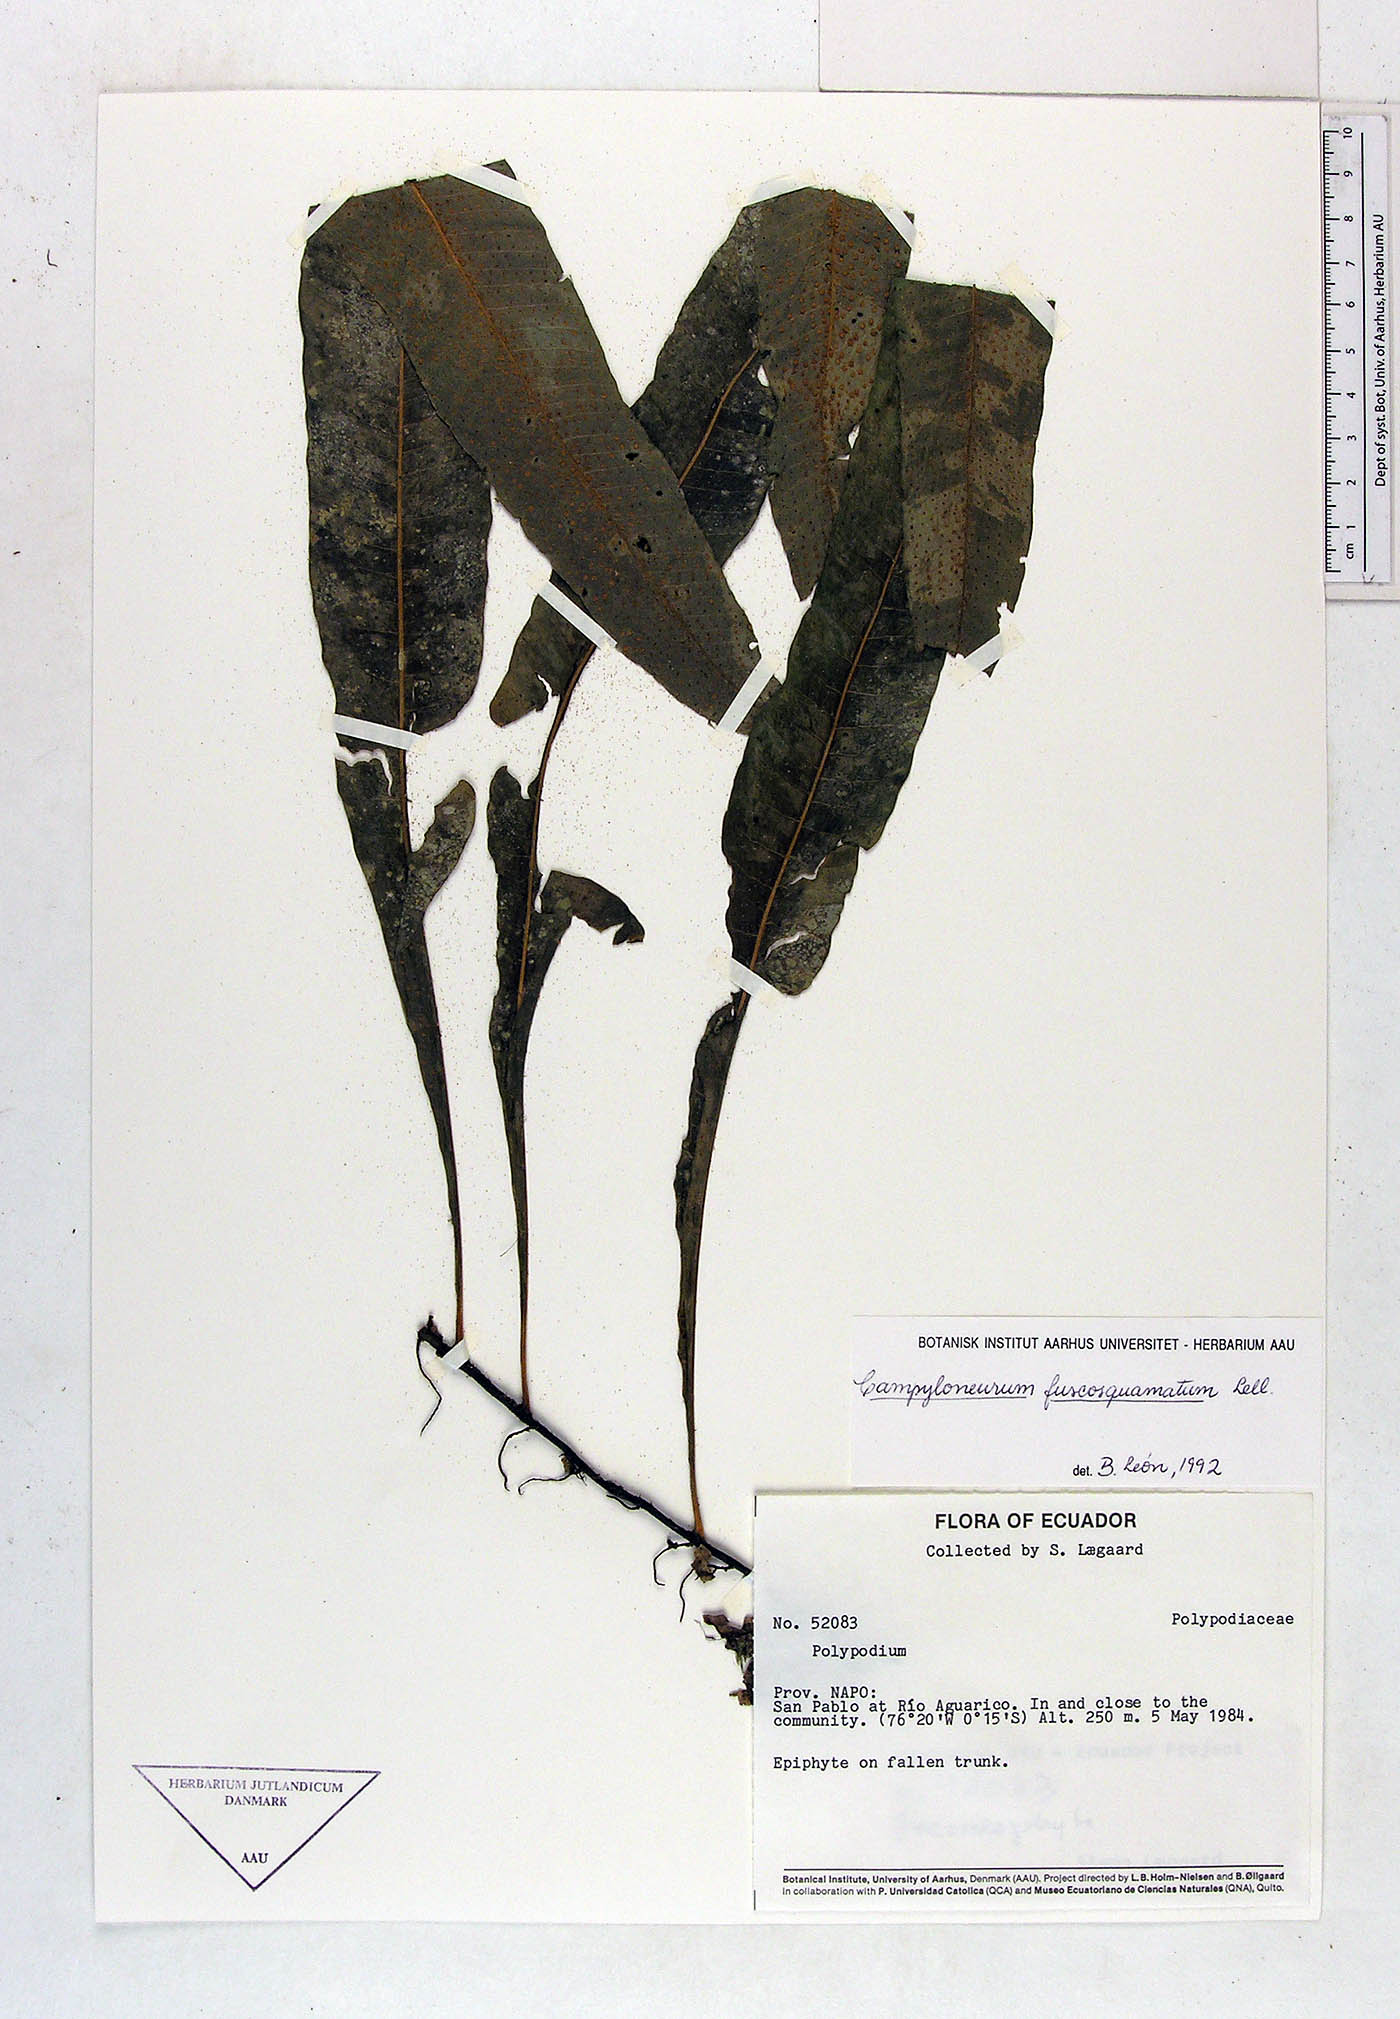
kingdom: Plantae
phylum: Tracheophyta
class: Polypodiopsida
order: Polypodiales
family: Polypodiaceae
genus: Campyloneurum
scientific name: Campyloneurum fuscosquamatum
